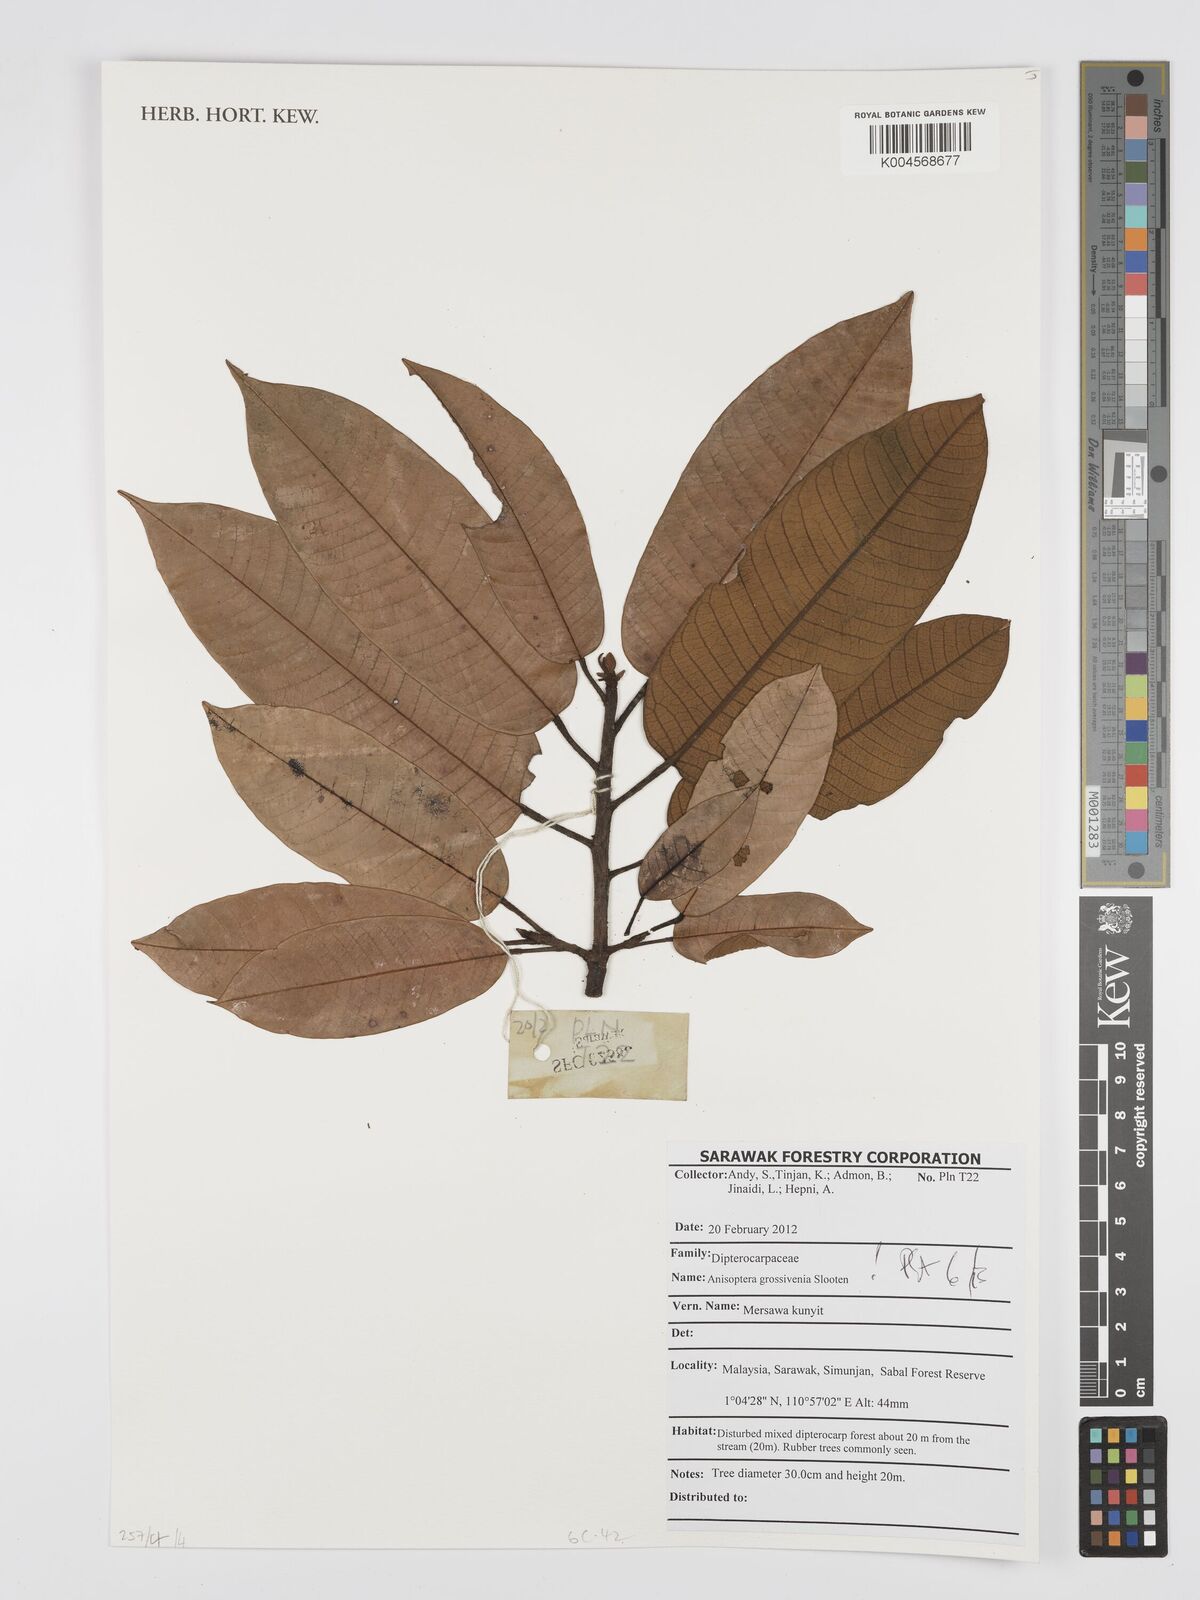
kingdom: Plantae
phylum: Tracheophyta
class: Magnoliopsida
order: Malvales
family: Dipterocarpaceae
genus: Anisoptera
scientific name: Anisoptera grossivenia
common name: Krabak
